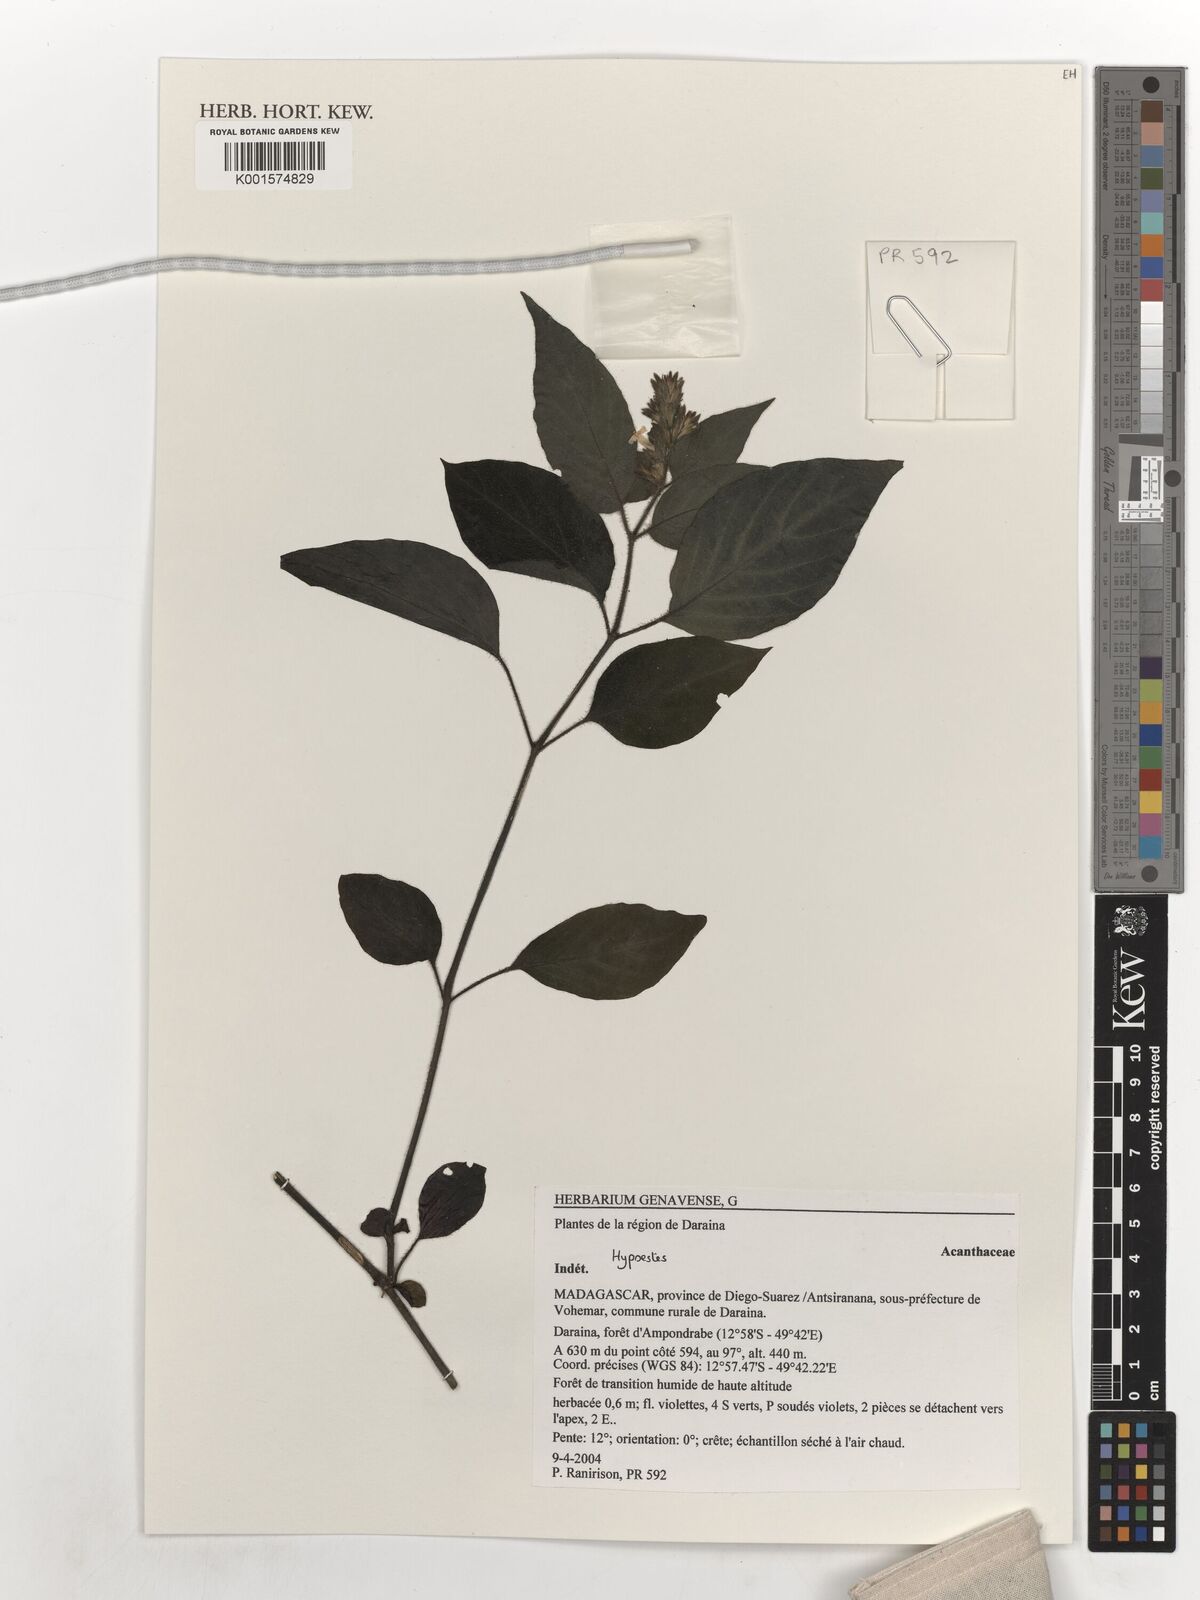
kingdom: Plantae
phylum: Tracheophyta
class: Magnoliopsida
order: Lamiales
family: Acanthaceae
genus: Hypoestes
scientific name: Hypoestes
